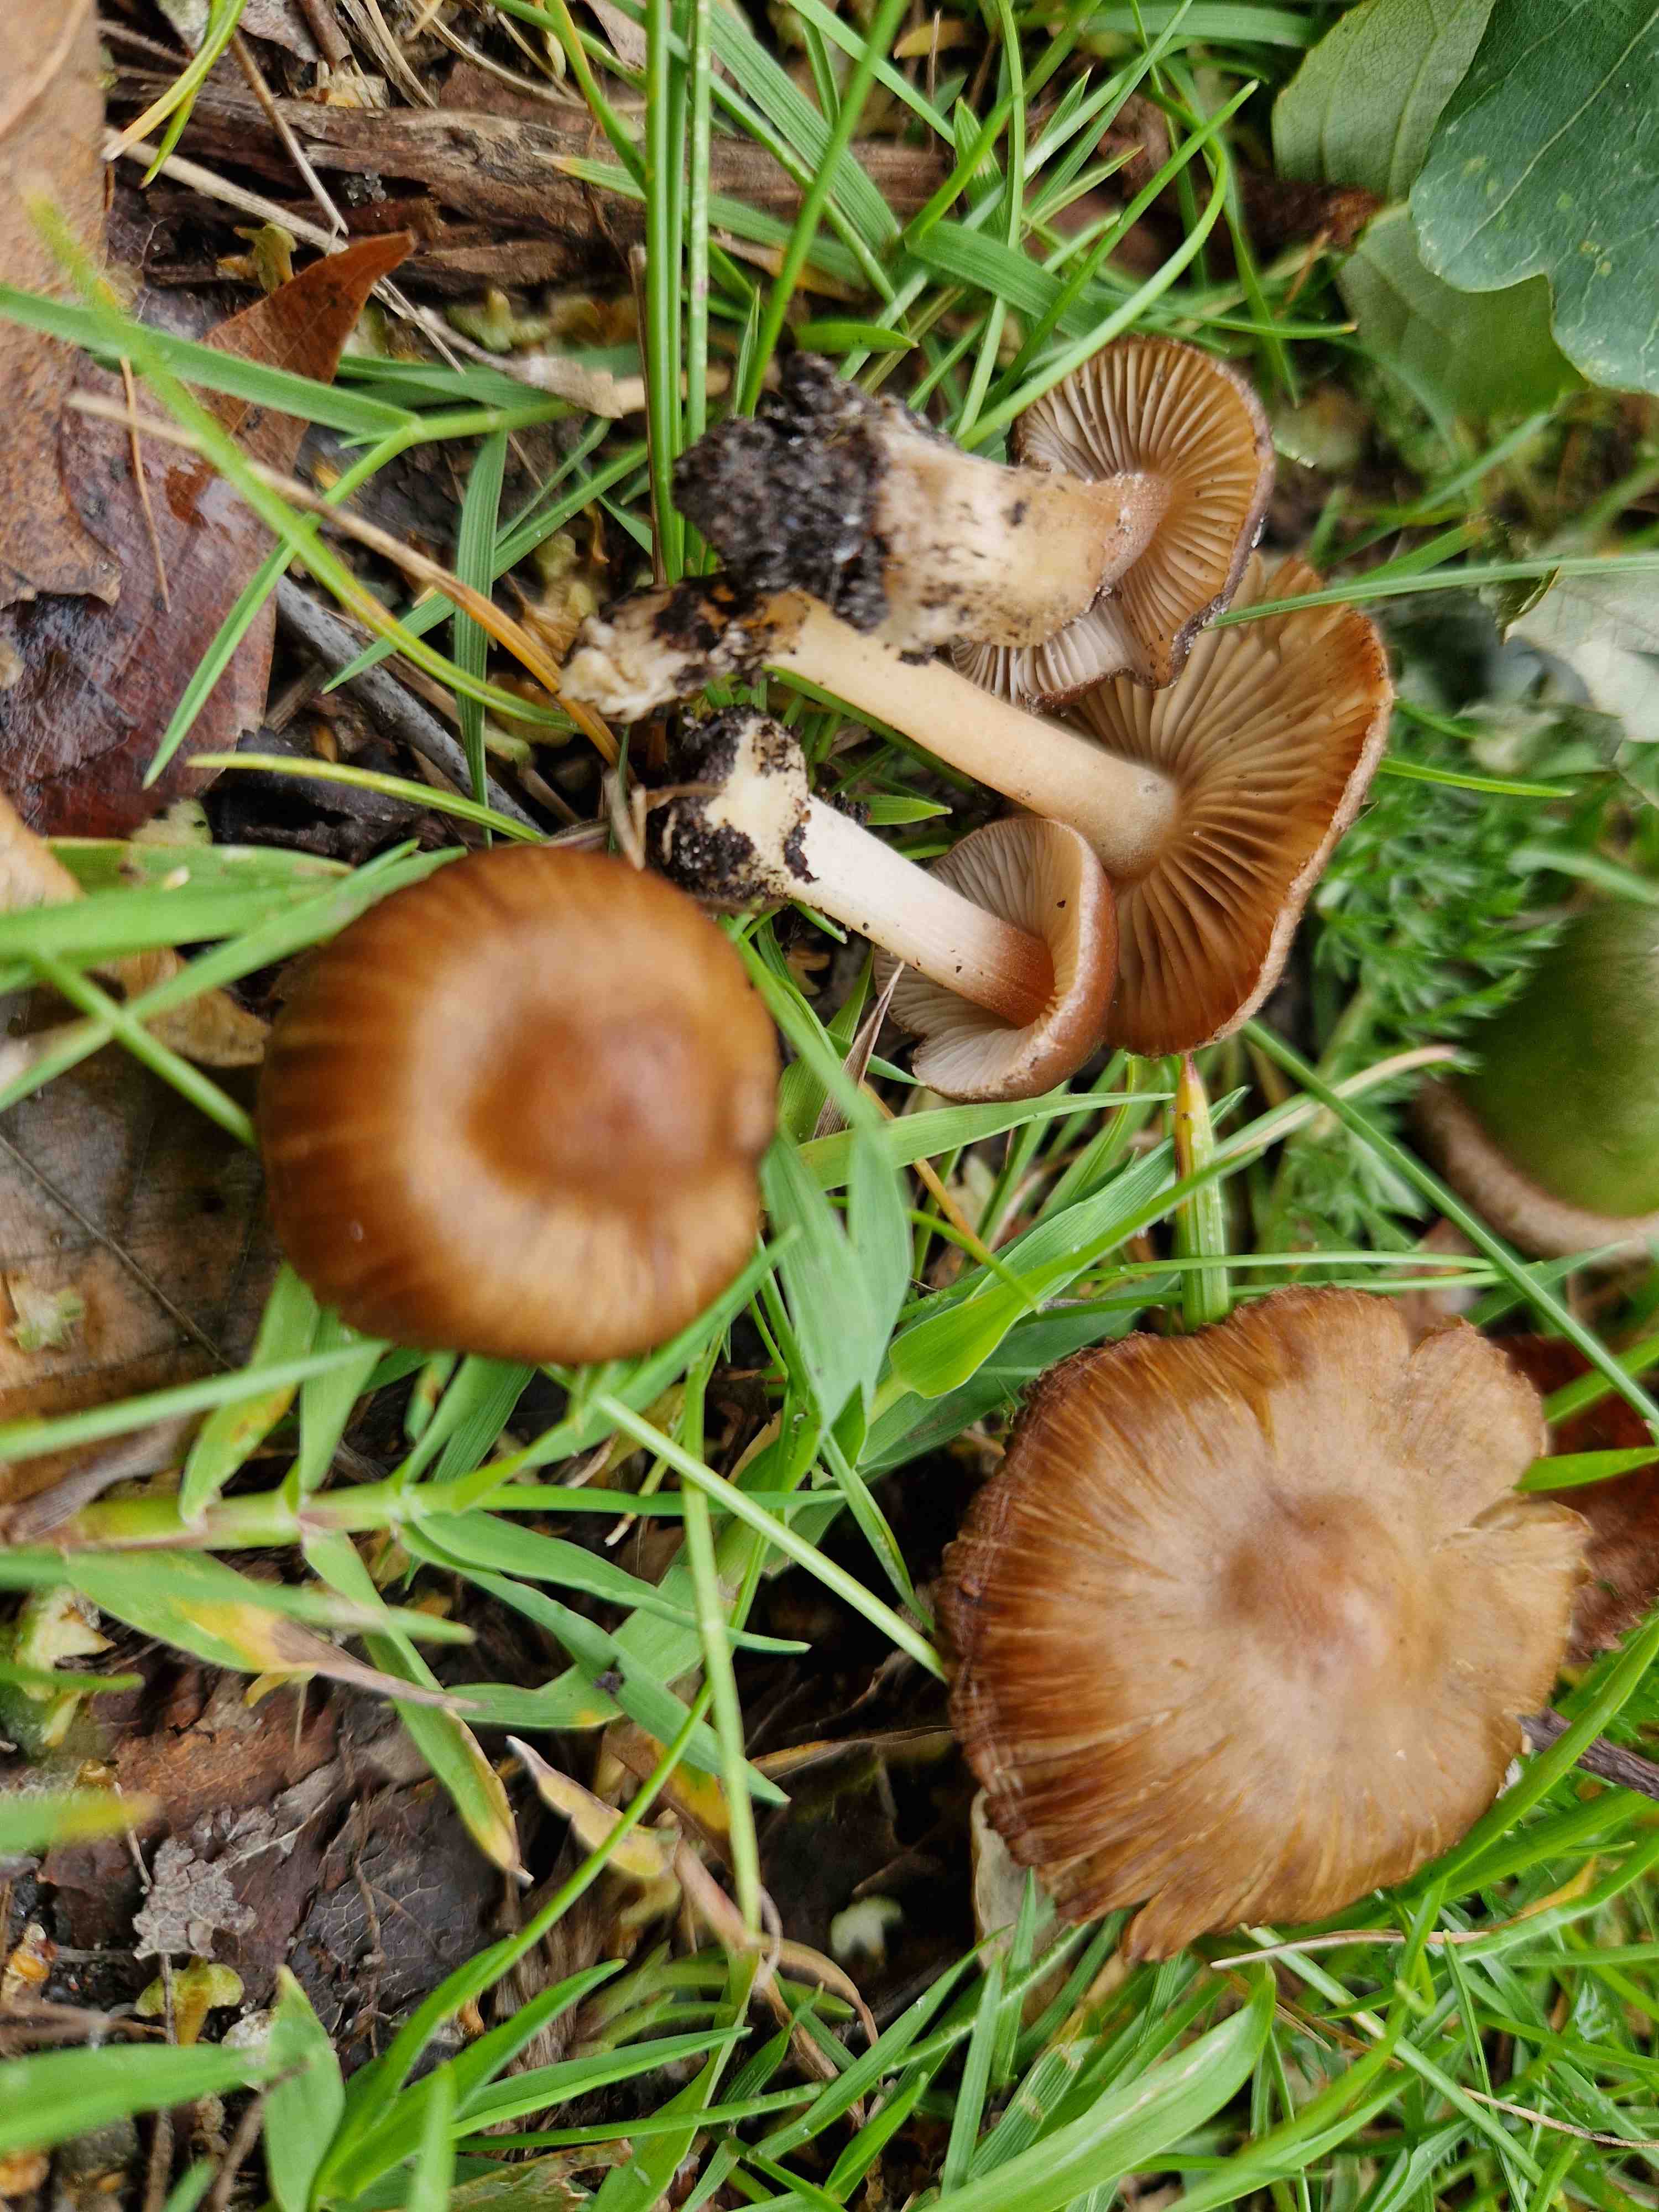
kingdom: Fungi
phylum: Basidiomycota
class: Agaricomycetes
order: Agaricales
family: Inocybaceae
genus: Inocybe
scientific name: Inocybe decemgibbosa
